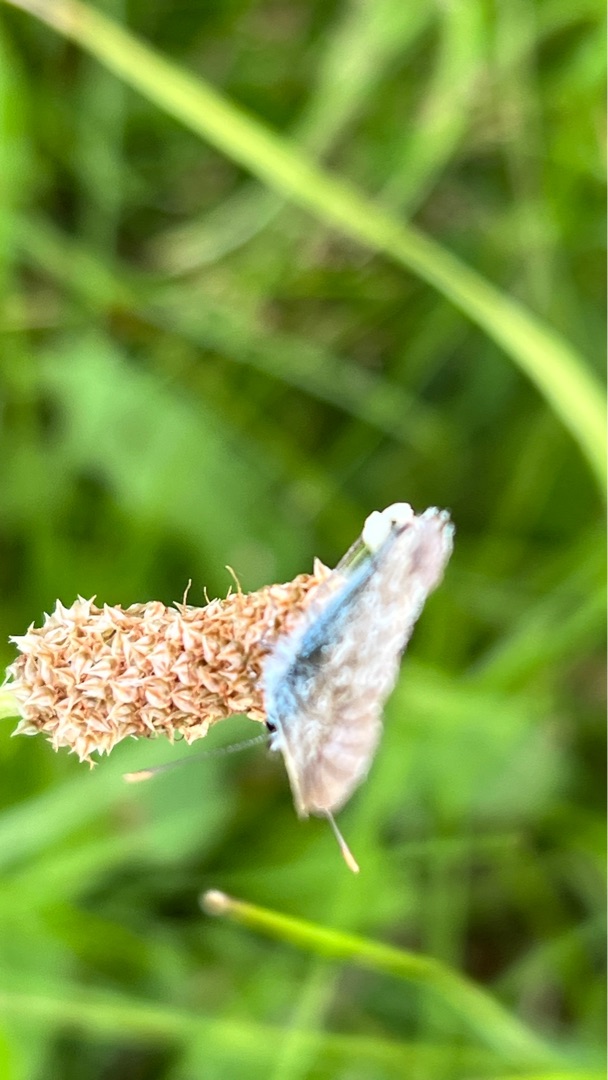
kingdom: Animalia
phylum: Arthropoda
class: Insecta
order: Lepidoptera
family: Lycaenidae
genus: Polyommatus
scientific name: Polyommatus icarus
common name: Almindelig blåfugl
